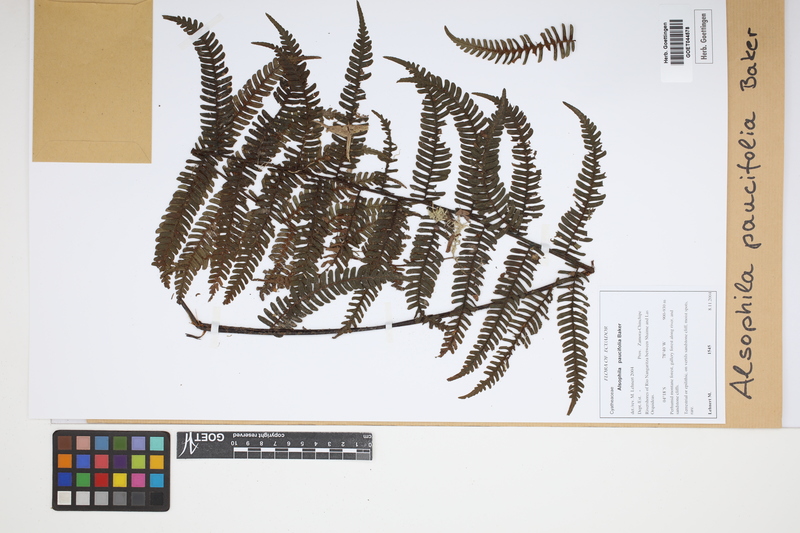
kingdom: Plantae
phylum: Tracheophyta
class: Polypodiopsida
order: Cyatheales
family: Cyatheaceae
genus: Cyathea
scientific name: Cyathea paucifolia
